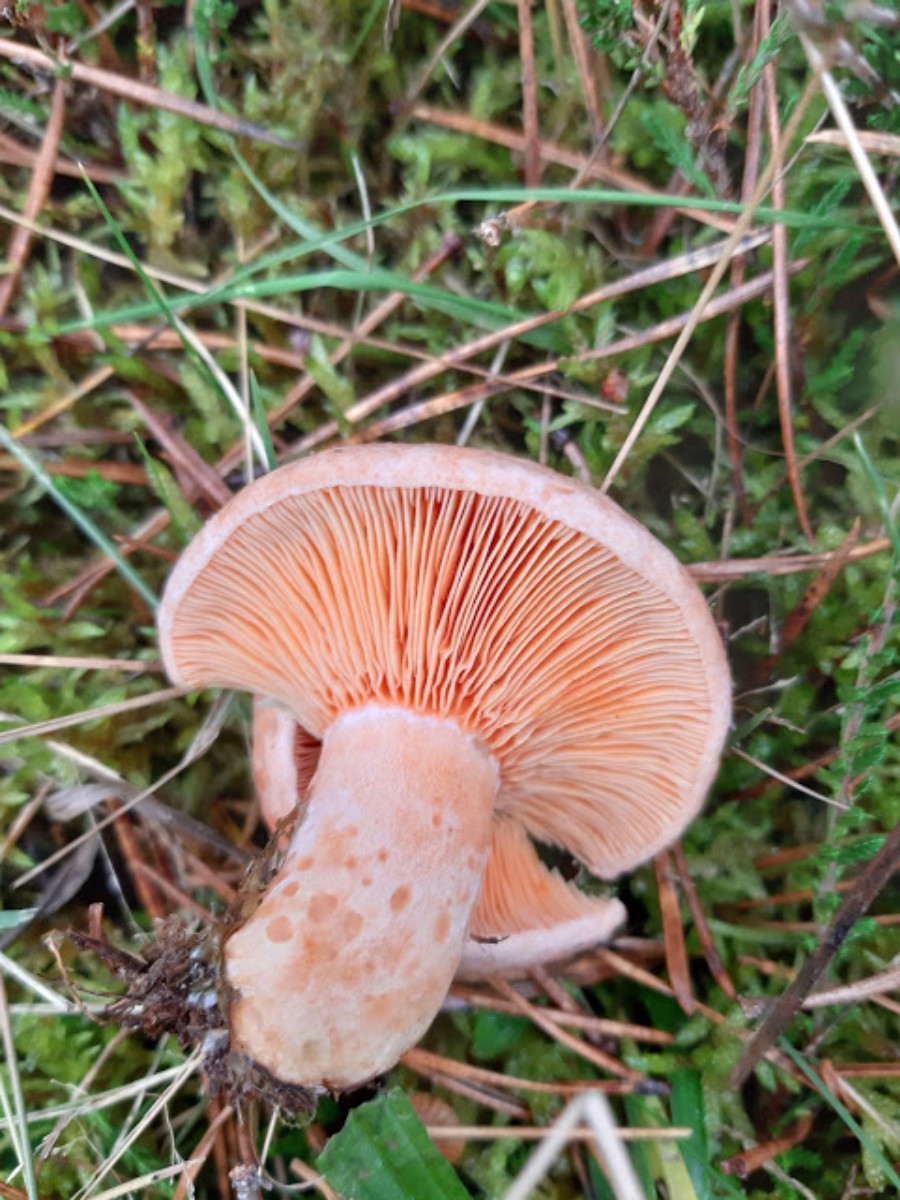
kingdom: Fungi
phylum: Basidiomycota
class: Agaricomycetes
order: Russulales
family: Russulaceae
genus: Lactarius
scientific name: Lactarius deliciosus
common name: velsmagende mælkehat
